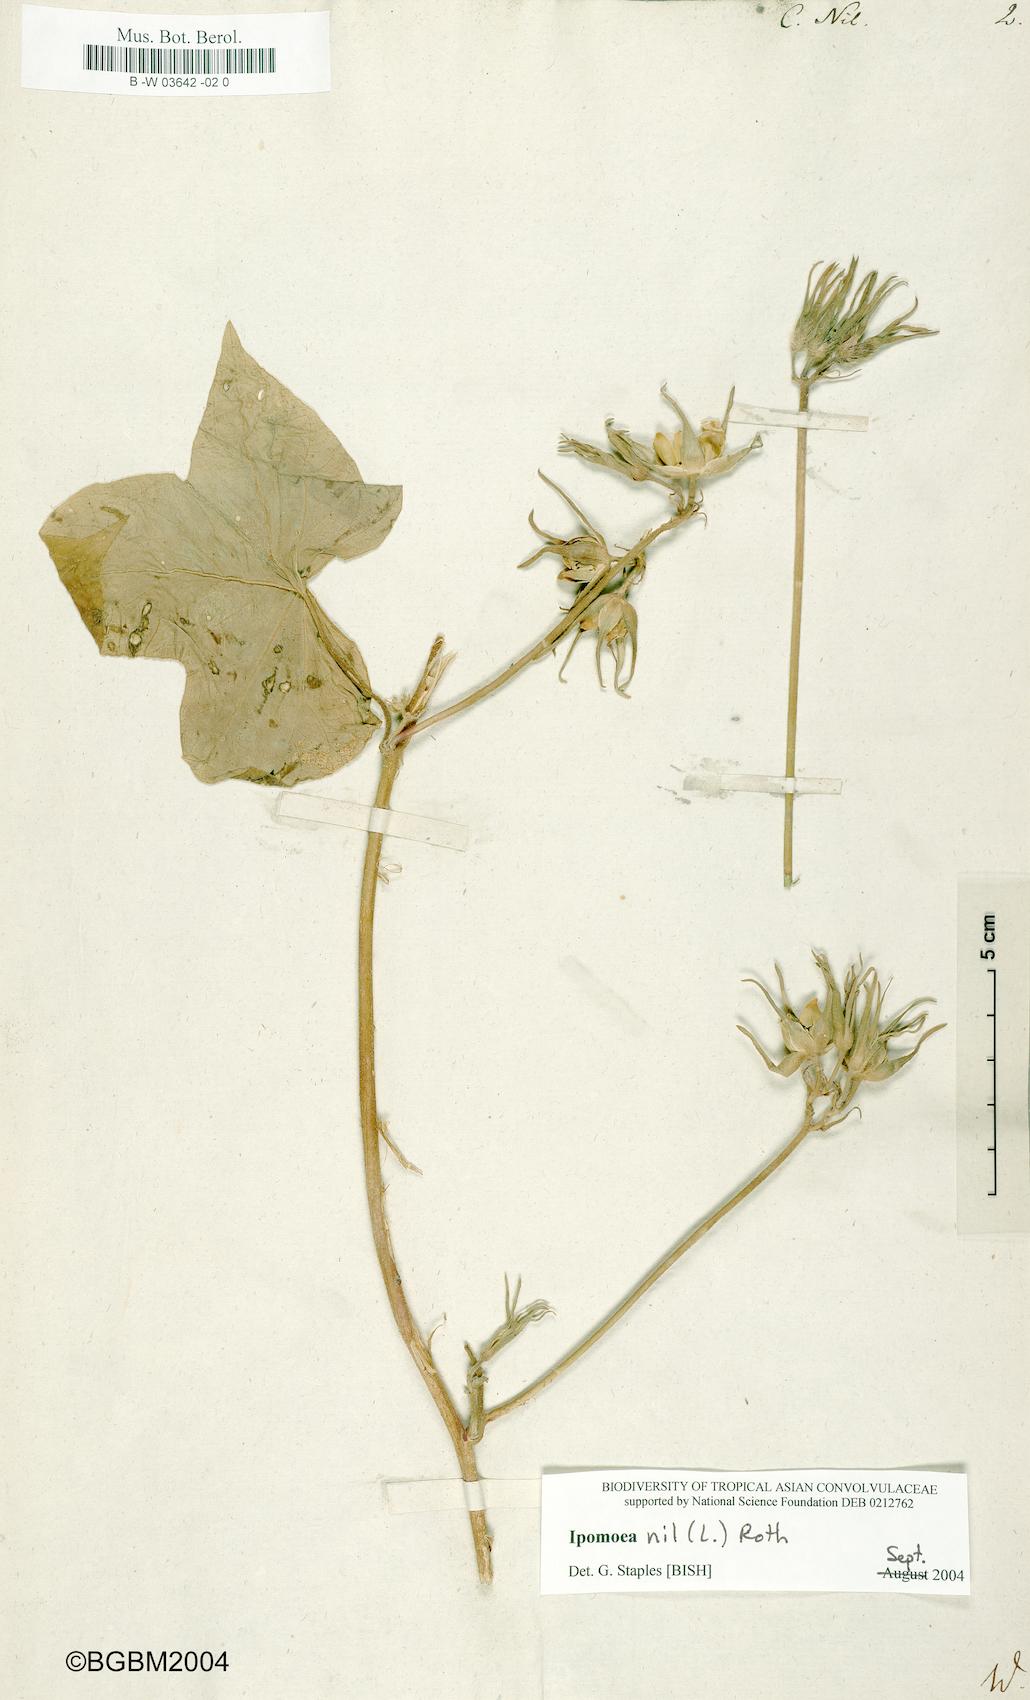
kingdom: Plantae
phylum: Tracheophyta
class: Magnoliopsida
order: Solanales
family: Convolvulaceae
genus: Ipomoea
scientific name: Ipomoea nil
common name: Japanese morning-glory
